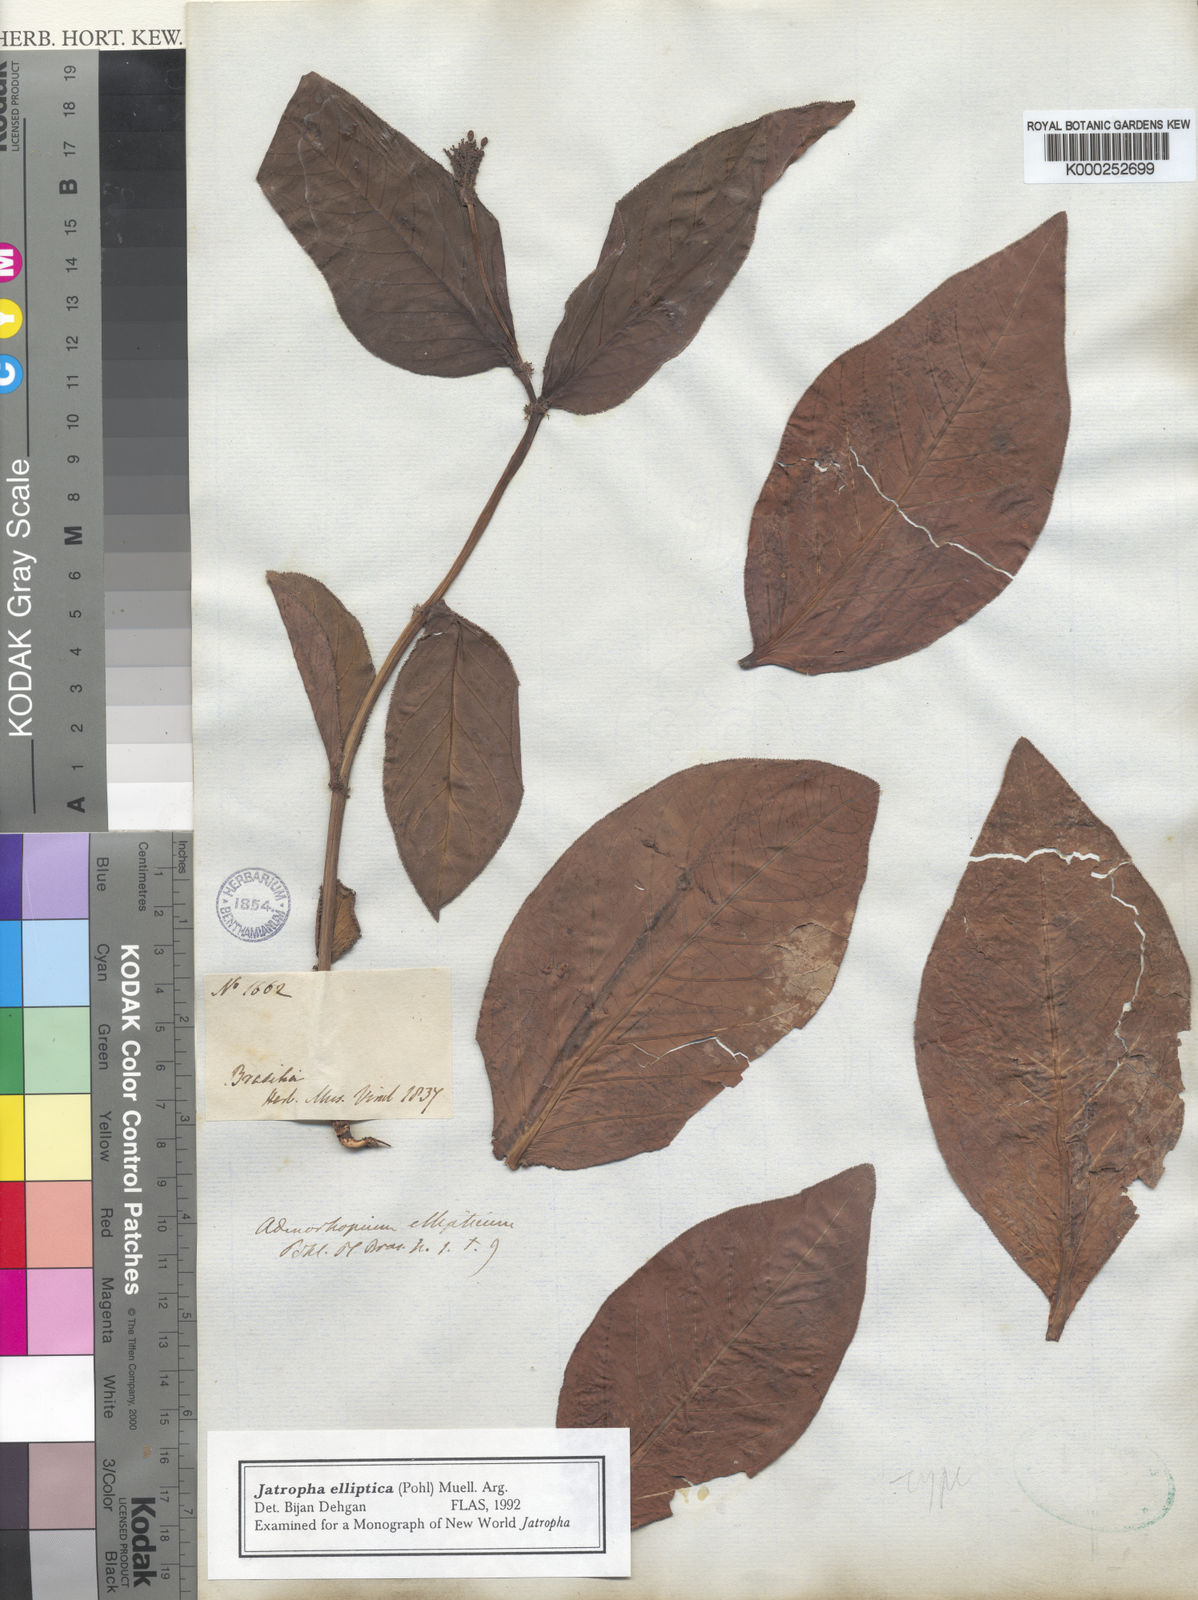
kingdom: Plantae
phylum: Tracheophyta
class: Magnoliopsida
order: Malpighiales
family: Euphorbiaceae
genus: Jatropha
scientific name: Jatropha elliptica
